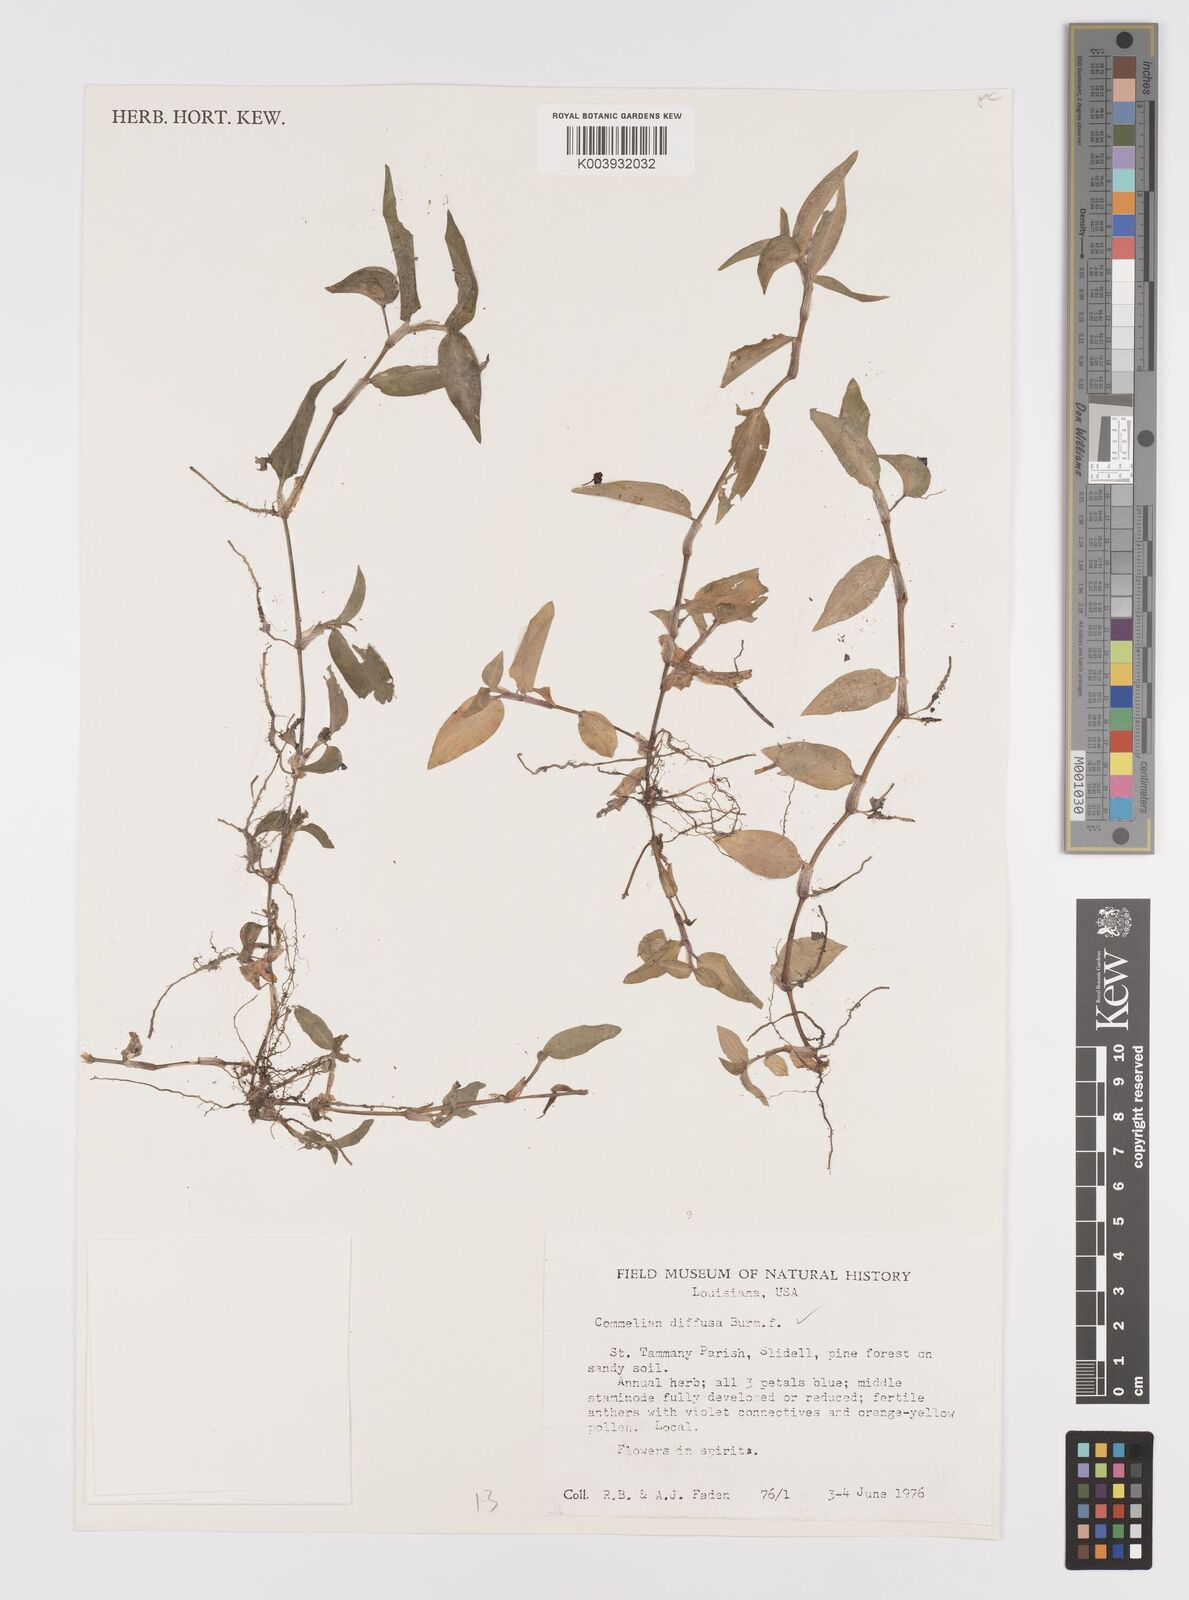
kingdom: Plantae
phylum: Tracheophyta
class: Liliopsida
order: Commelinales
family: Commelinaceae
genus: Commelina
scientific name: Commelina diffusa
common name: Climbing dayflower
